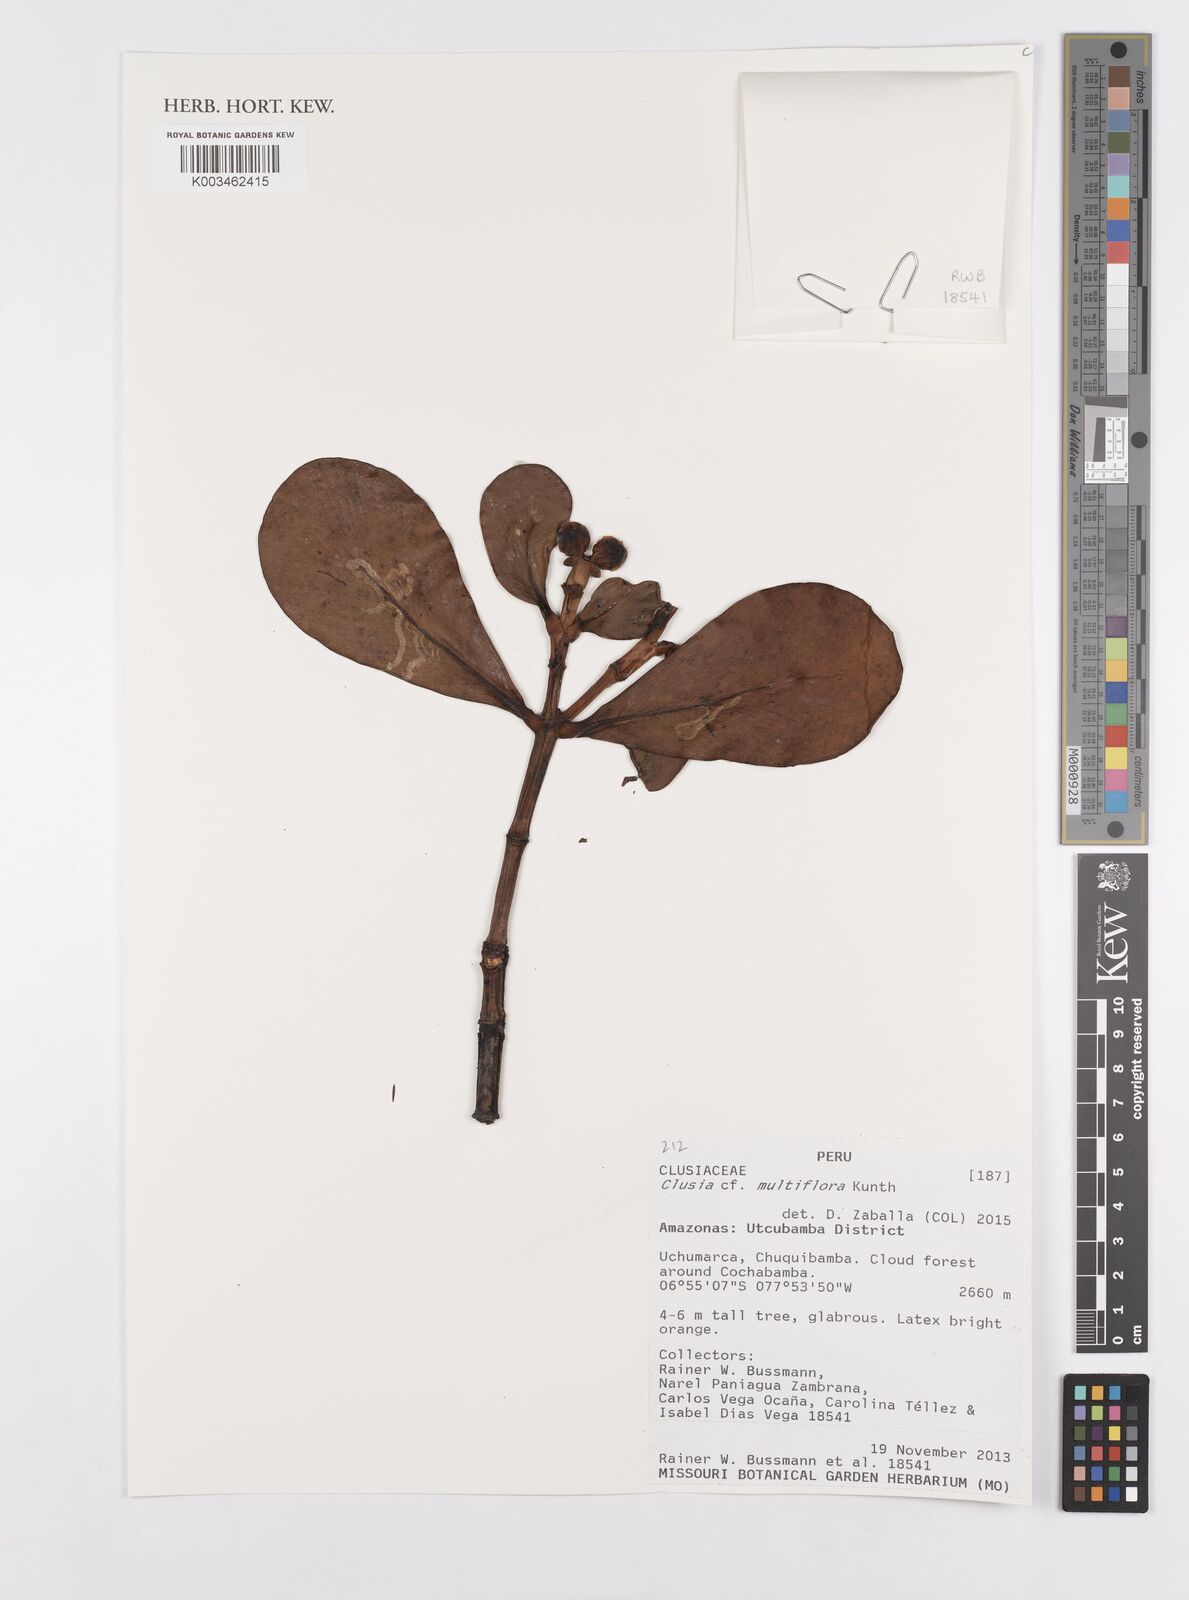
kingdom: Plantae
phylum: Tracheophyta
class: Magnoliopsida
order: Malpighiales
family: Clusiaceae
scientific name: Clusiaceae
